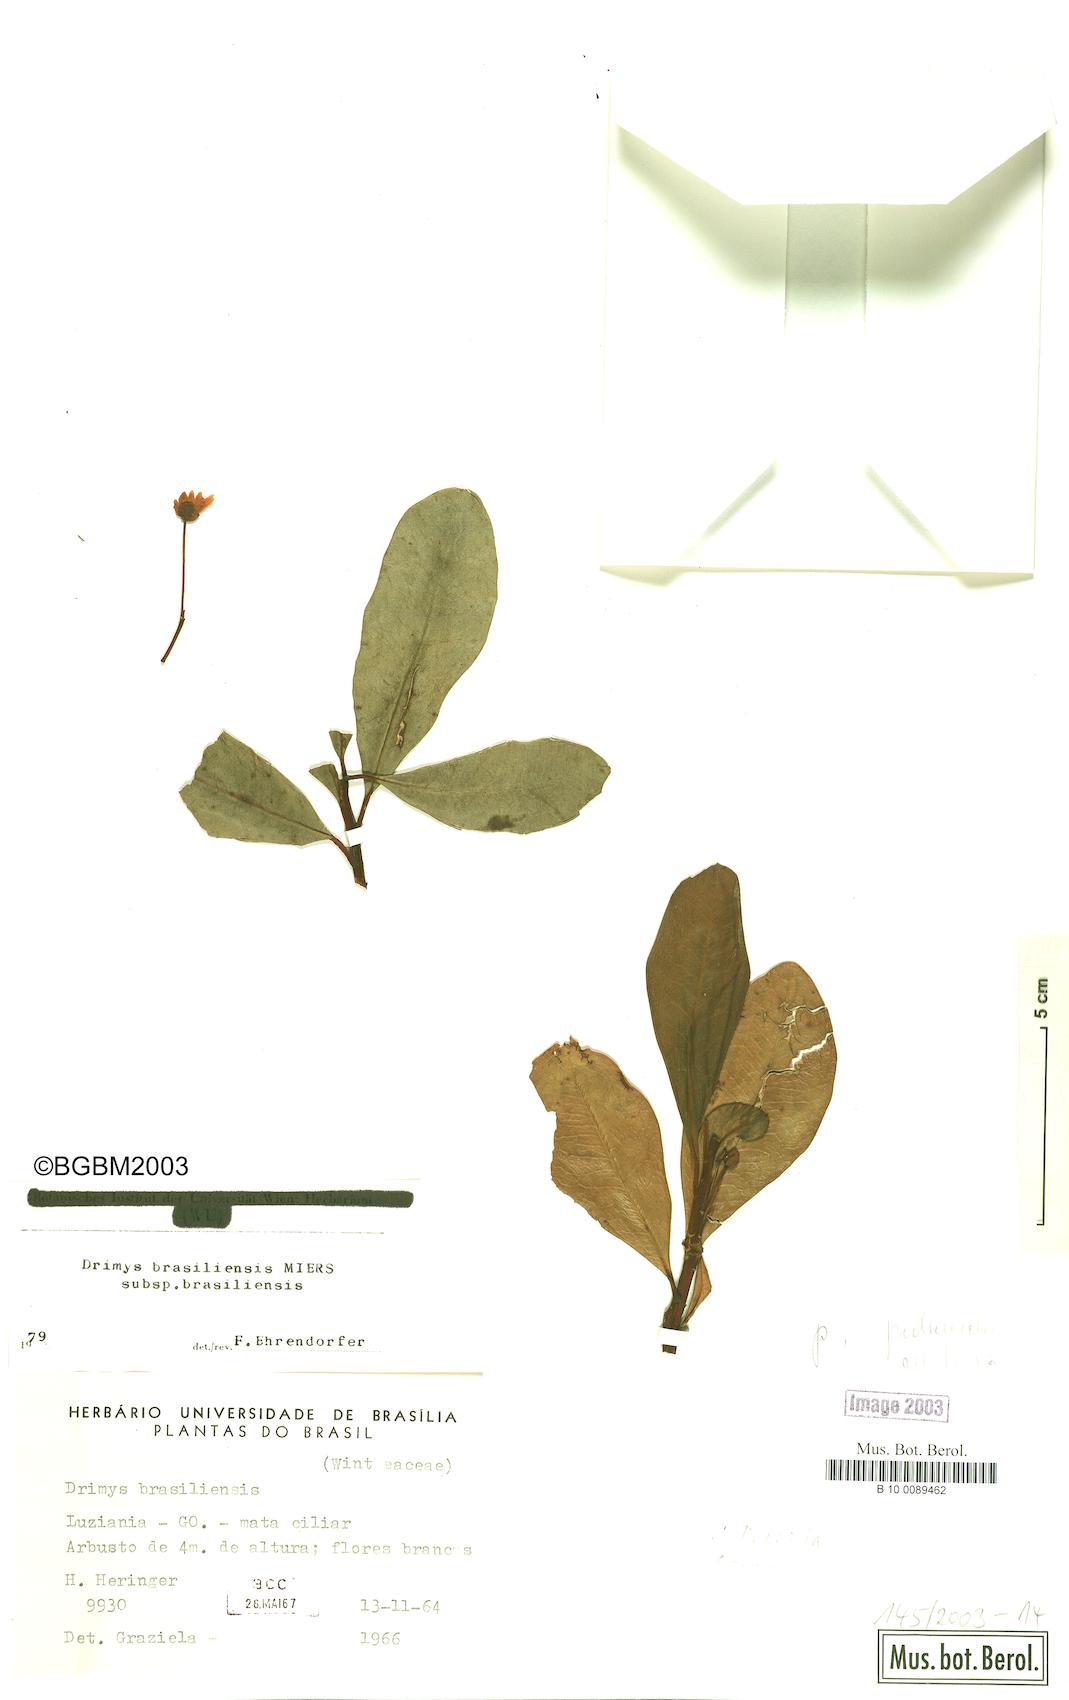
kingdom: Plantae
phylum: Tracheophyta
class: Magnoliopsida
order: Canellales
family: Winteraceae
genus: Drimys
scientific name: Drimys brasiliensis
